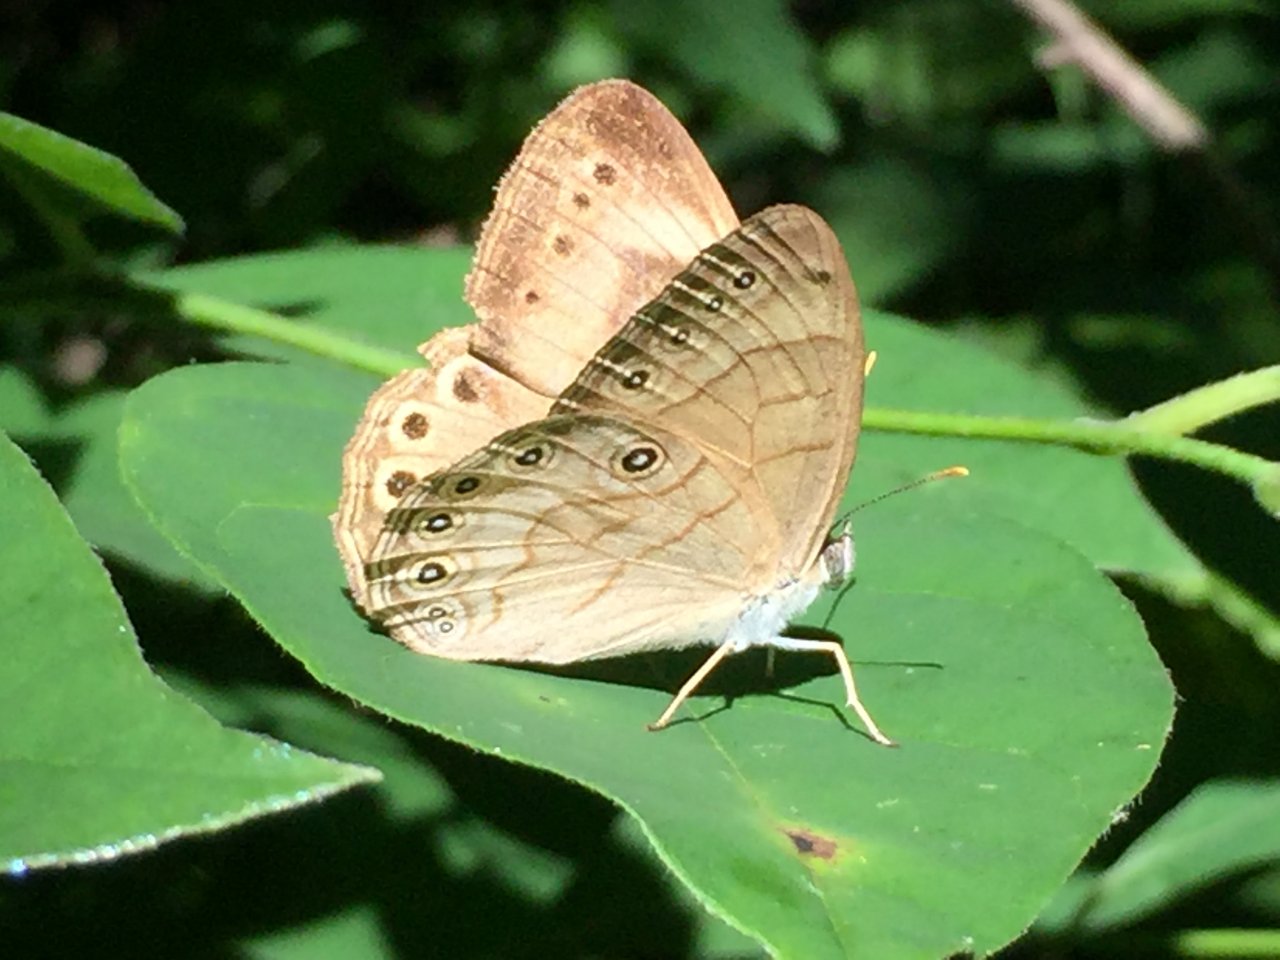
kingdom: Animalia
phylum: Arthropoda
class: Insecta
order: Lepidoptera
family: Nymphalidae
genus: Lethe
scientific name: Lethe eurydice
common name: Appalachian Eyed Brown
